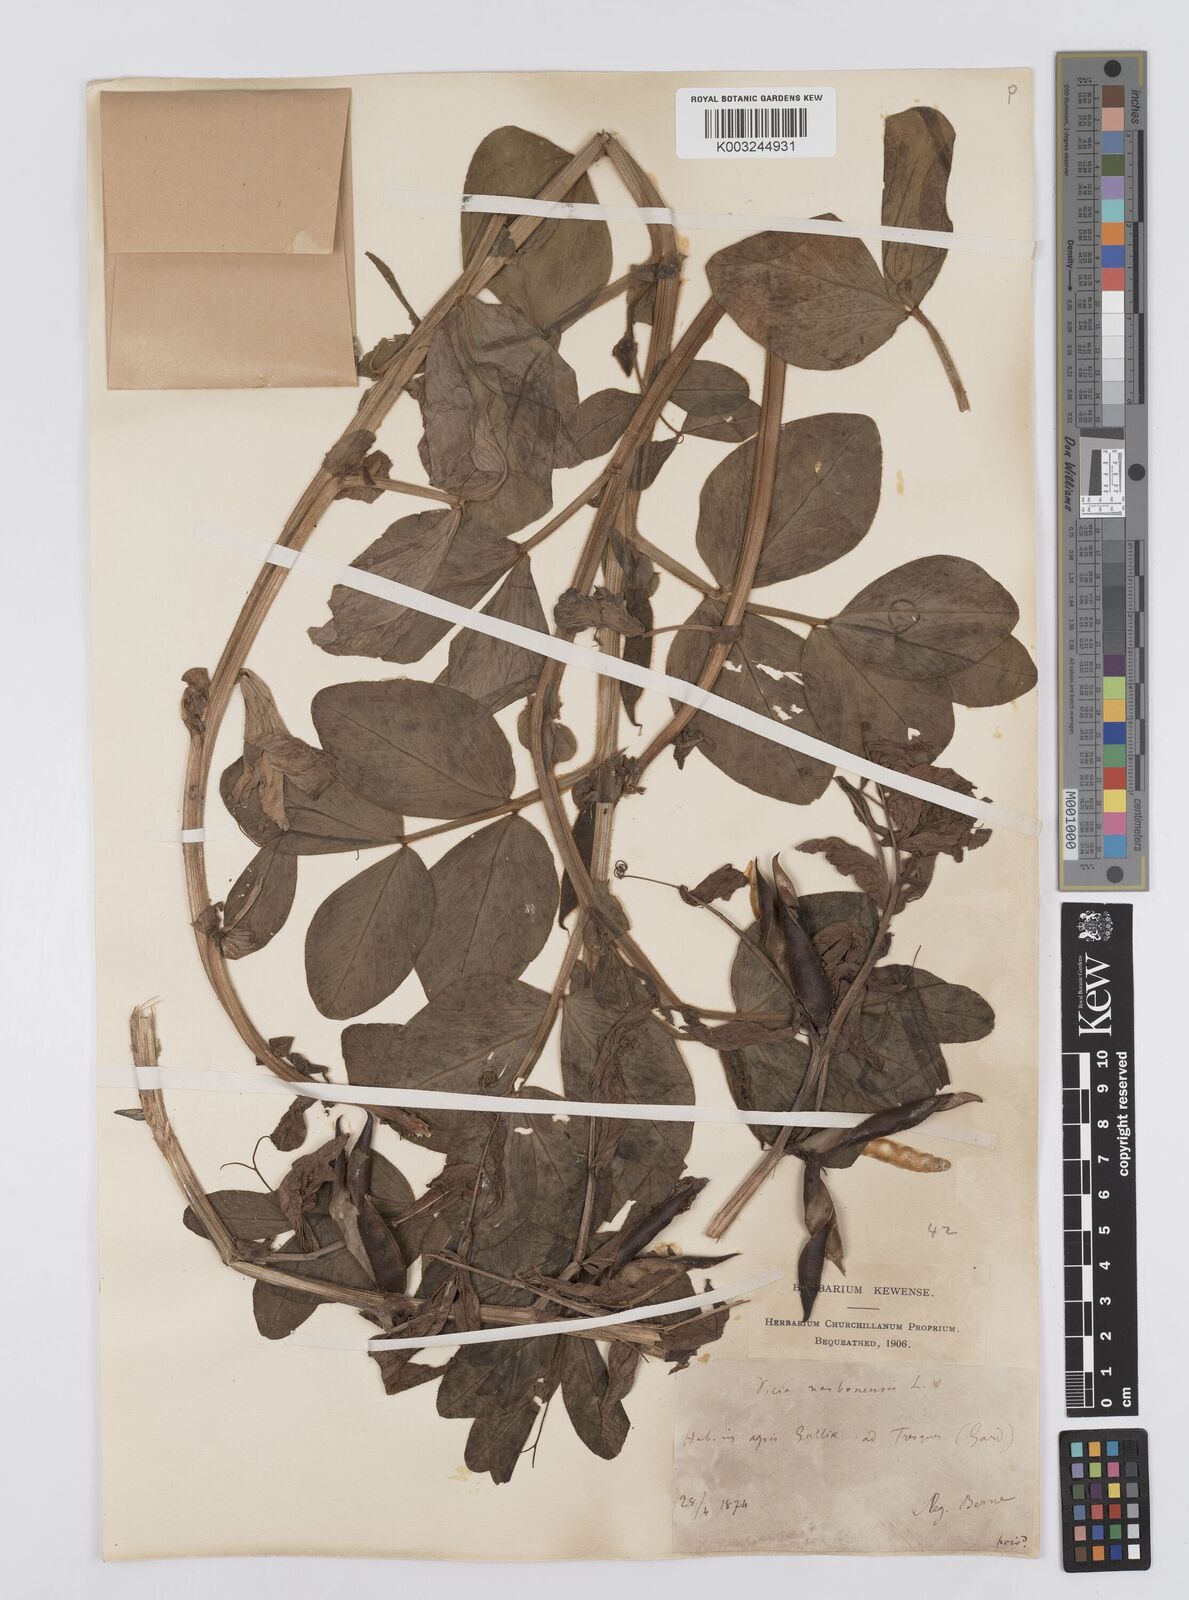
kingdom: Plantae
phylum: Tracheophyta
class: Magnoliopsida
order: Fabales
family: Fabaceae
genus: Vicia
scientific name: Vicia narbonensis
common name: Narbonne vetch
